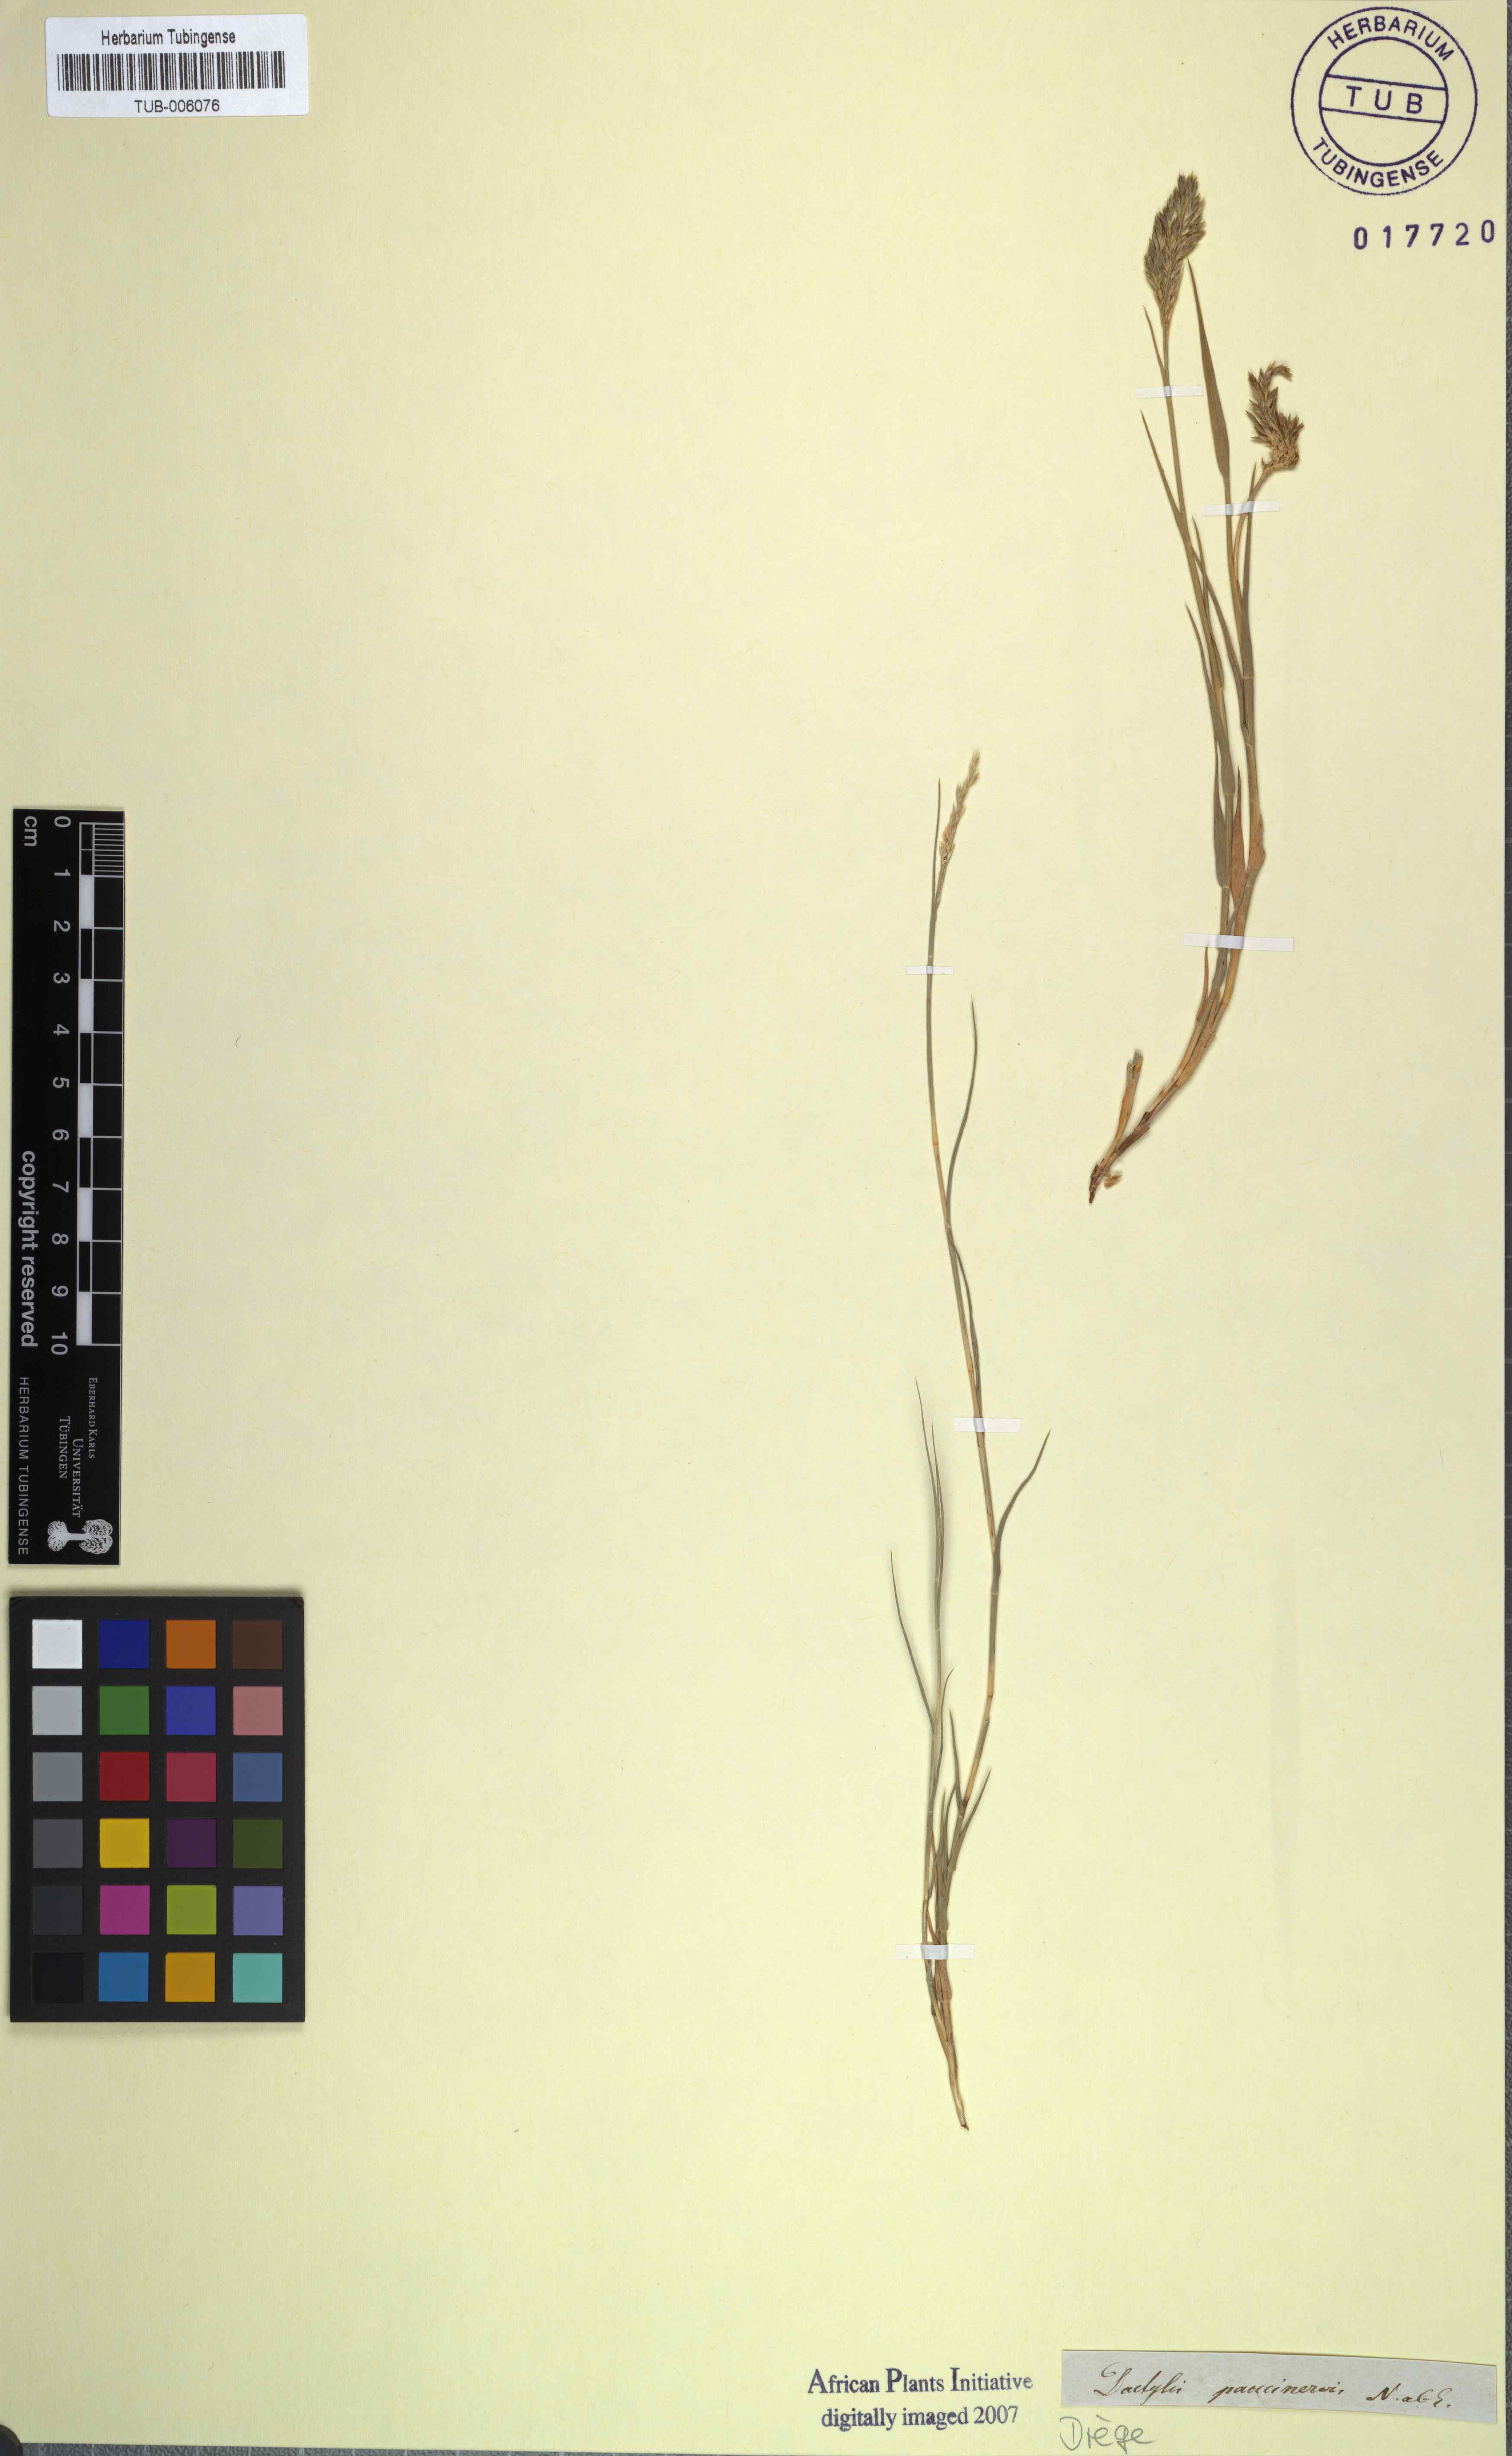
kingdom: Plantae
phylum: Tracheophyta
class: Liliopsida
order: Poales
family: Poaceae
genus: Odyssea
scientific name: Odyssea paucinervis
